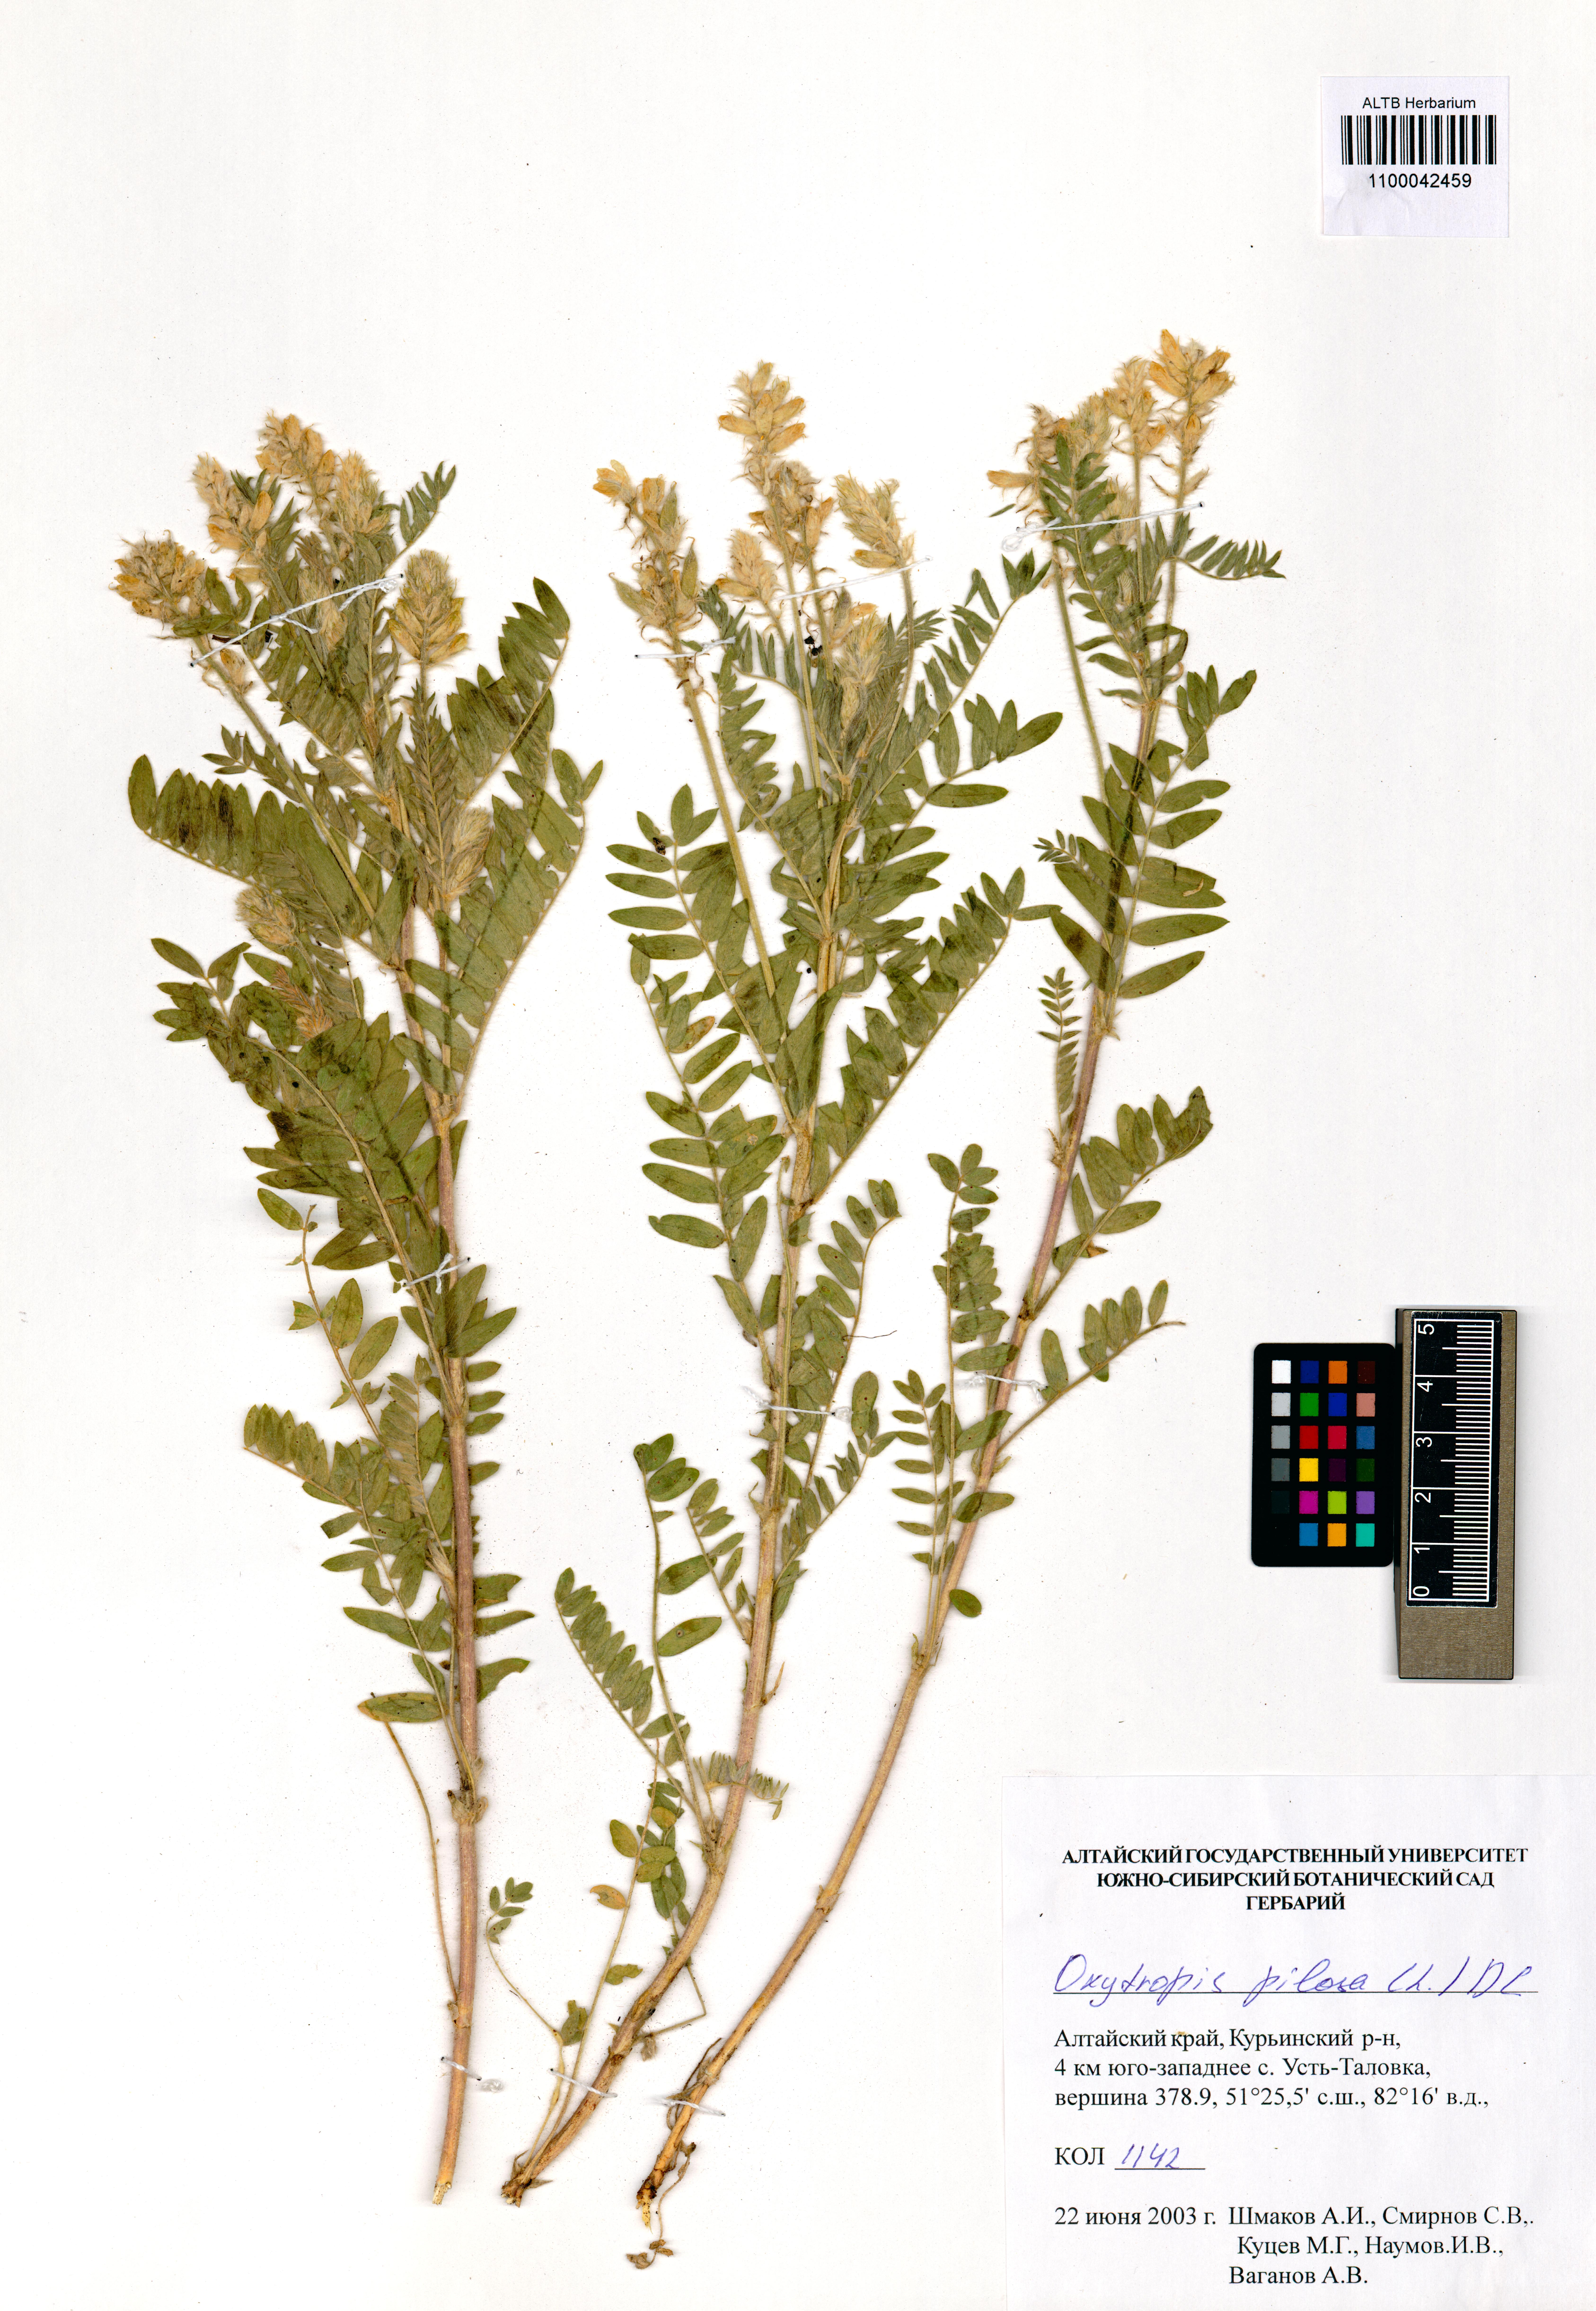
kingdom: Plantae
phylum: Tracheophyta
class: Magnoliopsida
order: Fabales
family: Fabaceae
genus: Oxytropis
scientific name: Oxytropis pilosa
